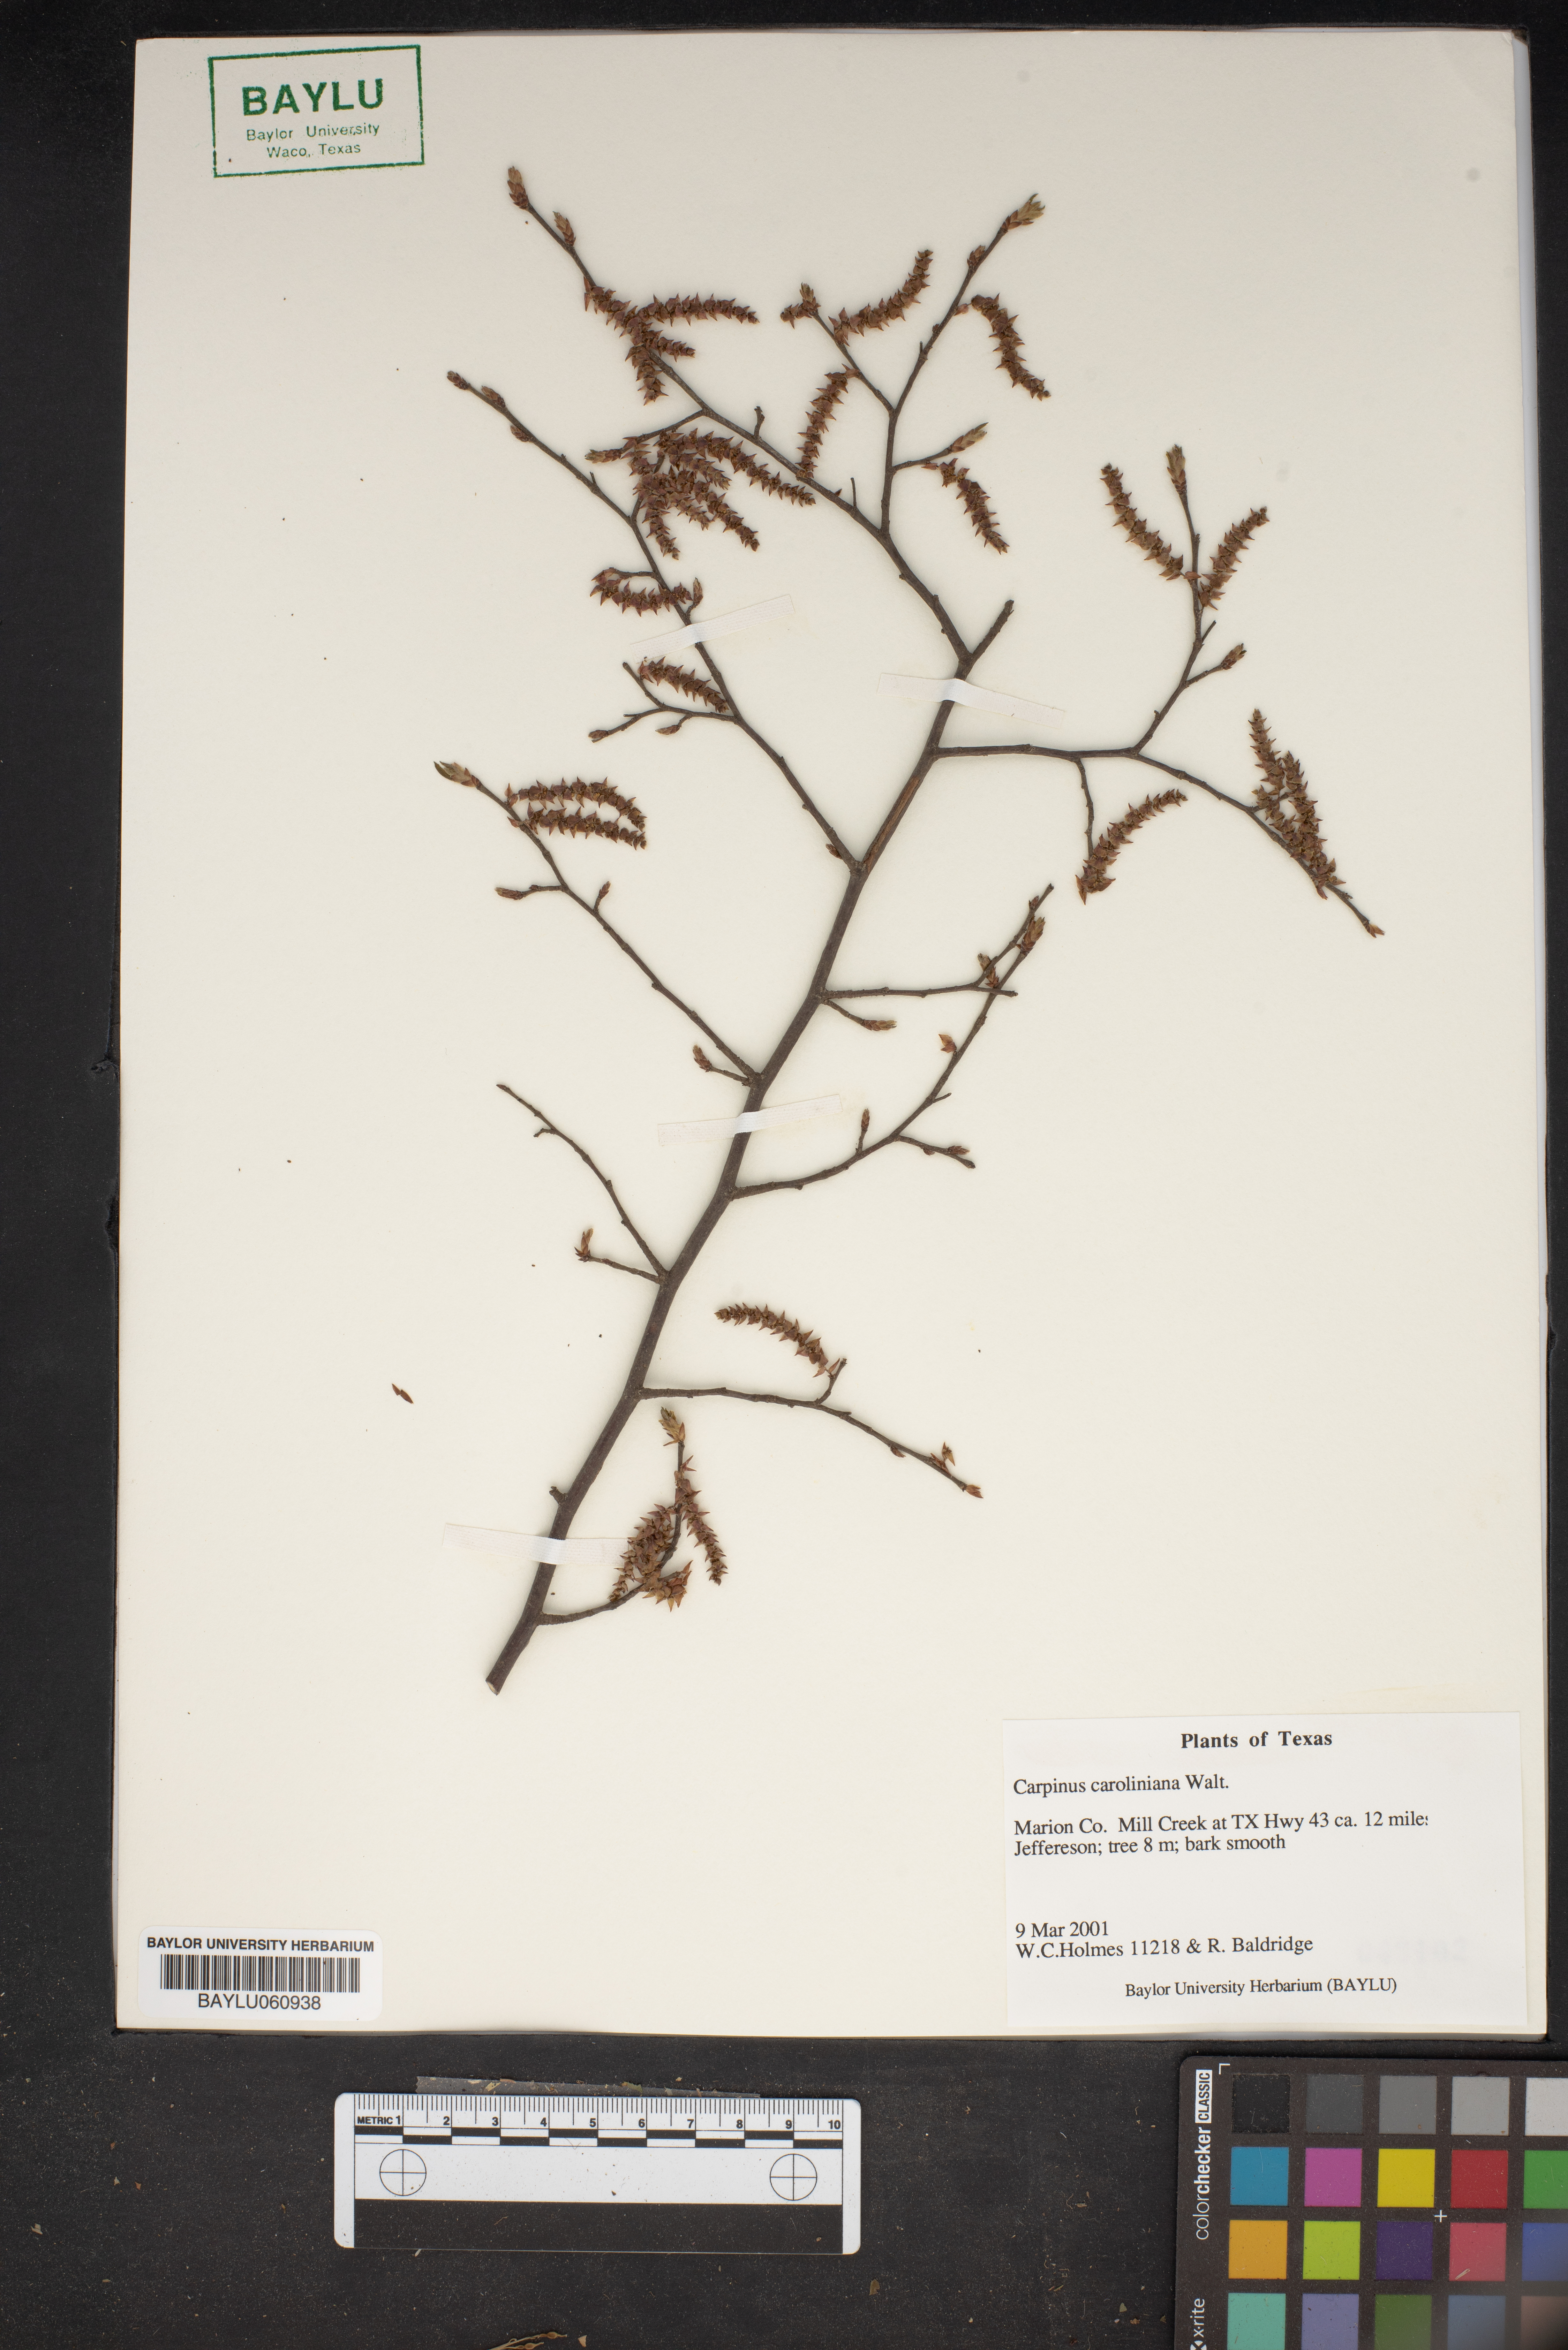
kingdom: Plantae
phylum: Tracheophyta
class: Magnoliopsida
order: Fagales
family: Betulaceae
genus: Carpinus
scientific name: Carpinus caroliniana
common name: American hornbeam
